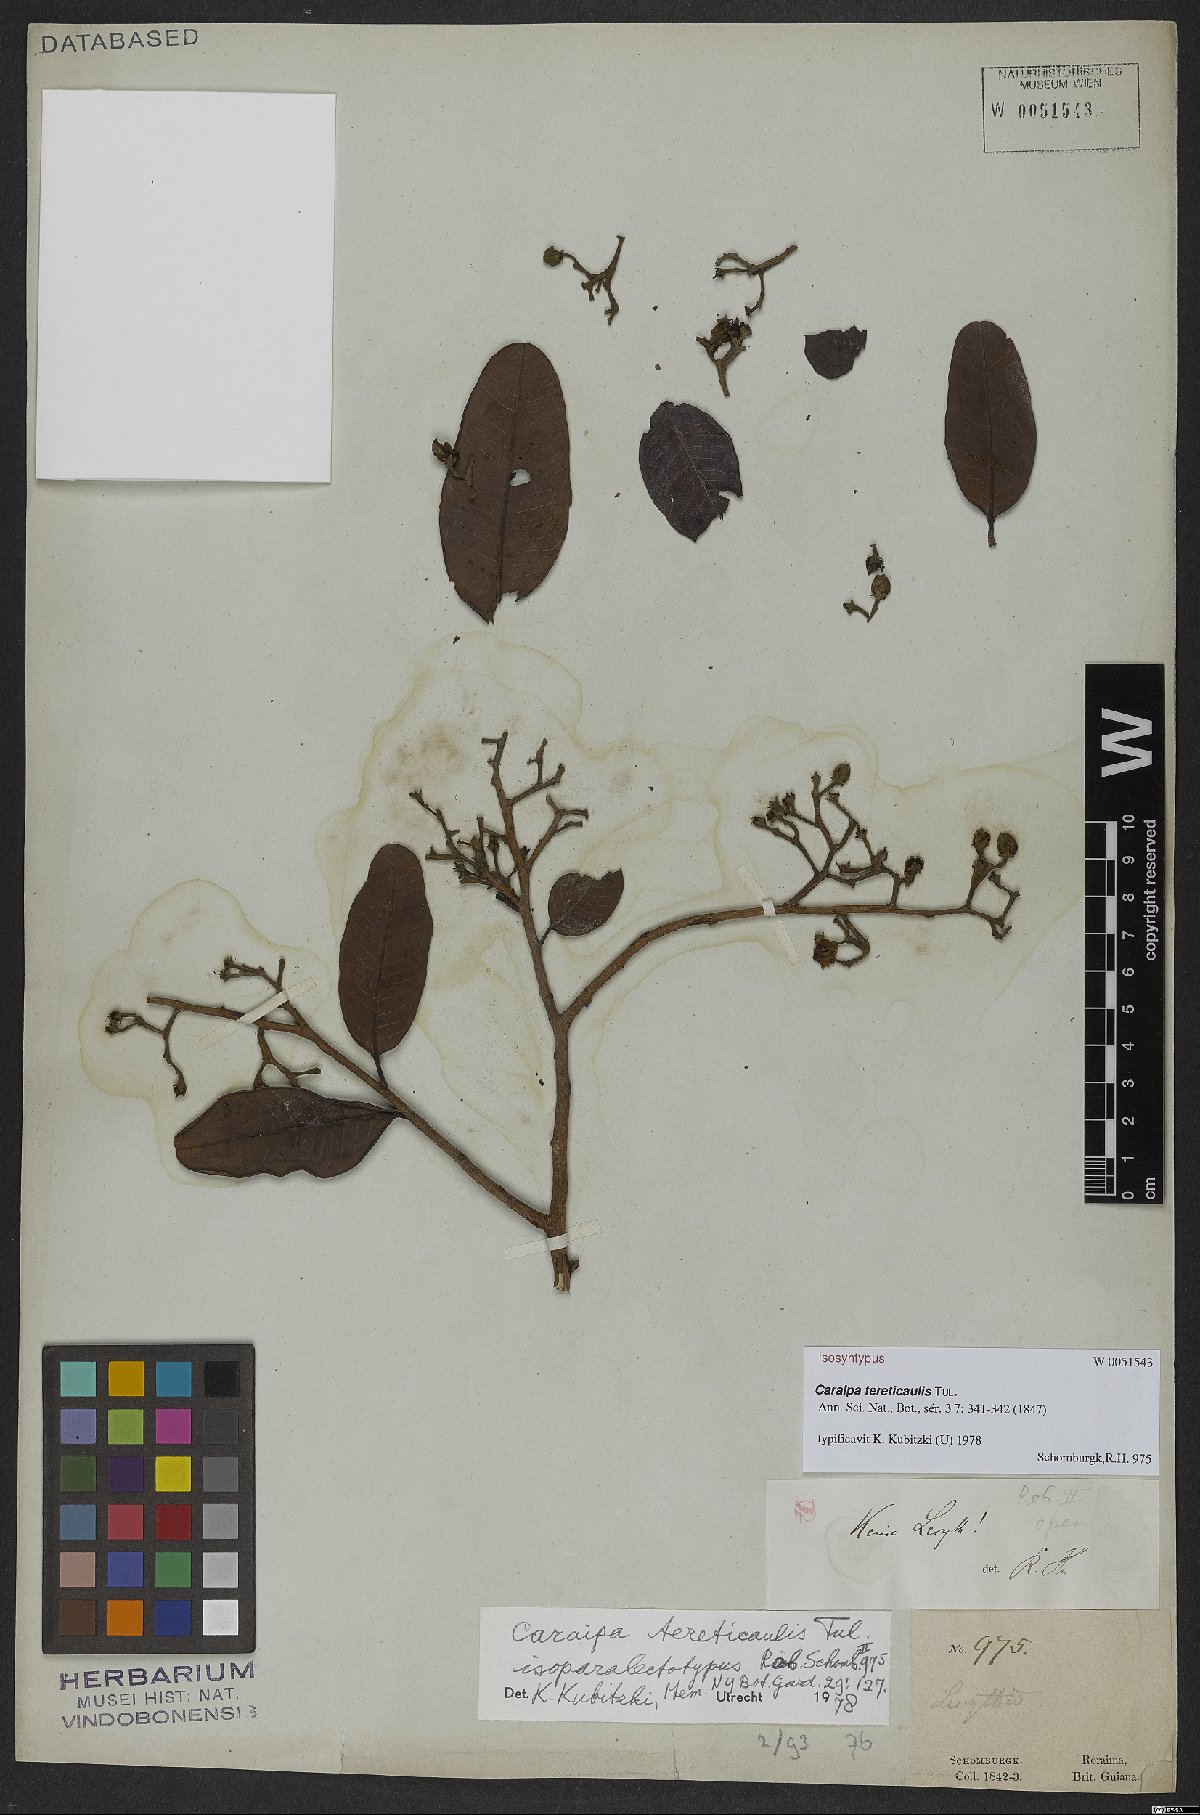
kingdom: Plantae
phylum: Tracheophyta
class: Magnoliopsida
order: Malpighiales
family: Calophyllaceae
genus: Caraipa
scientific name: Caraipa tereticaulis
